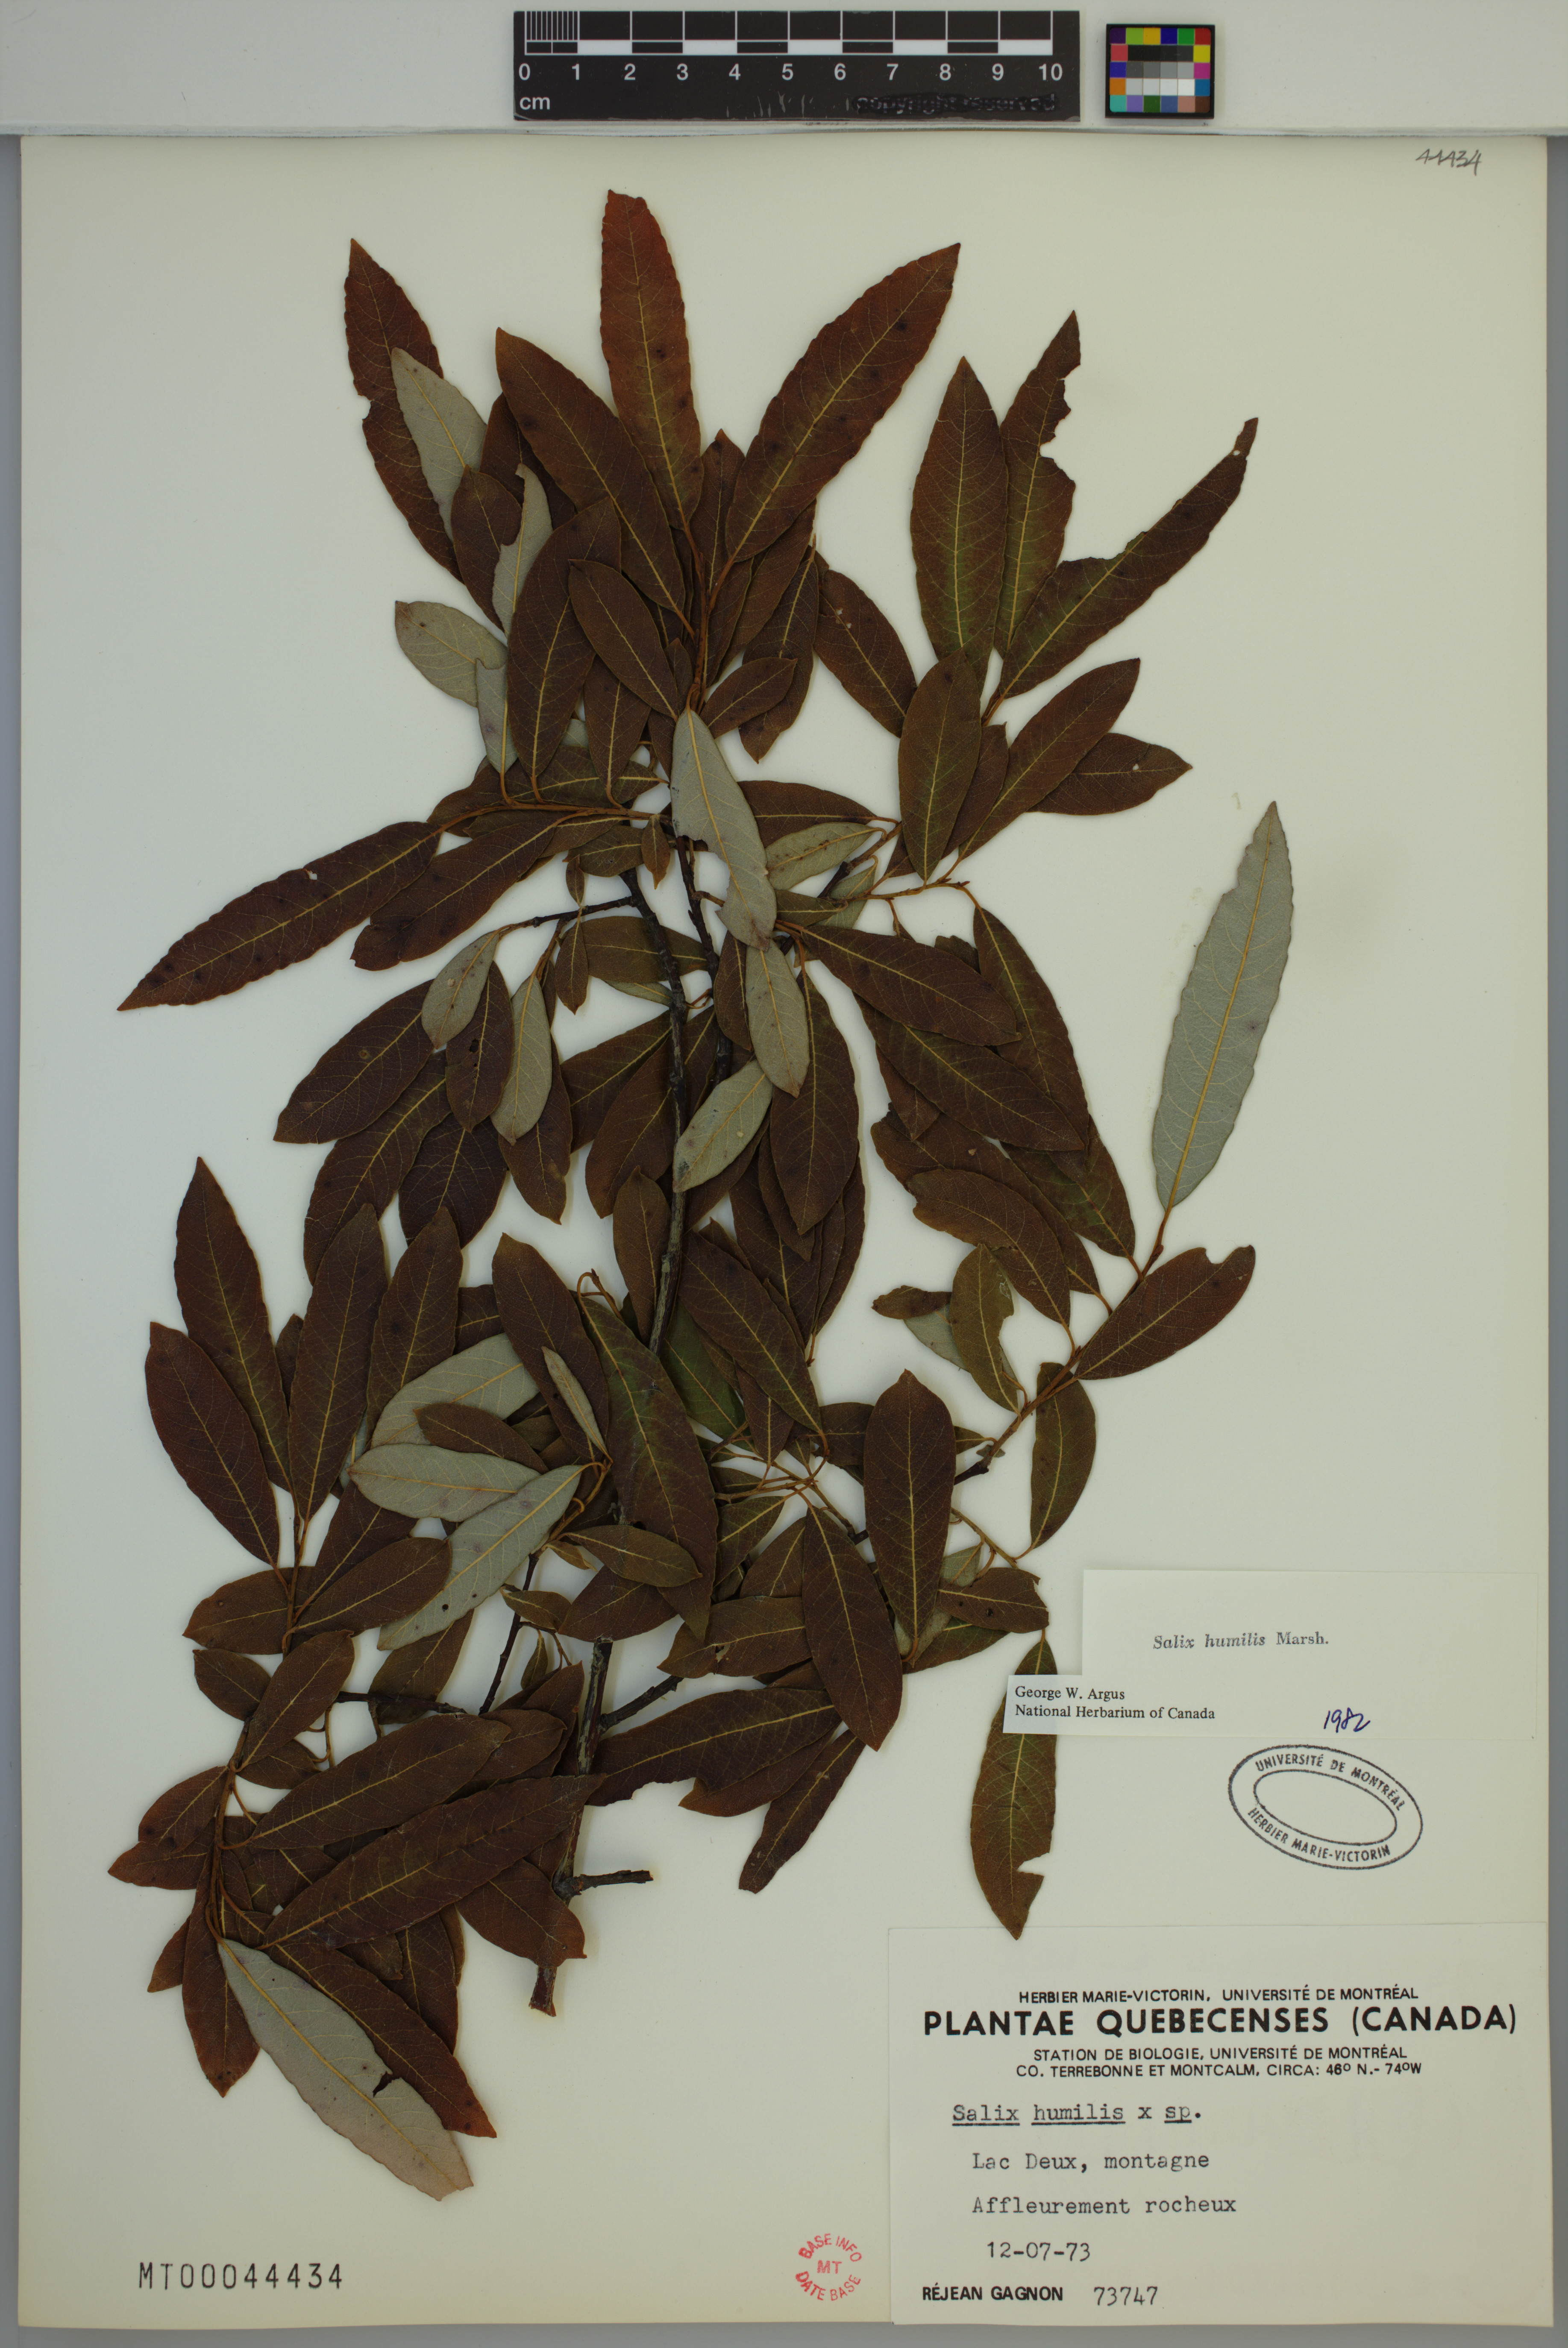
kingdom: Plantae
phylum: Tracheophyta
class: Magnoliopsida
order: Malpighiales
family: Salicaceae
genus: Salix
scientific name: Salix humilis
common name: Prairie willow
